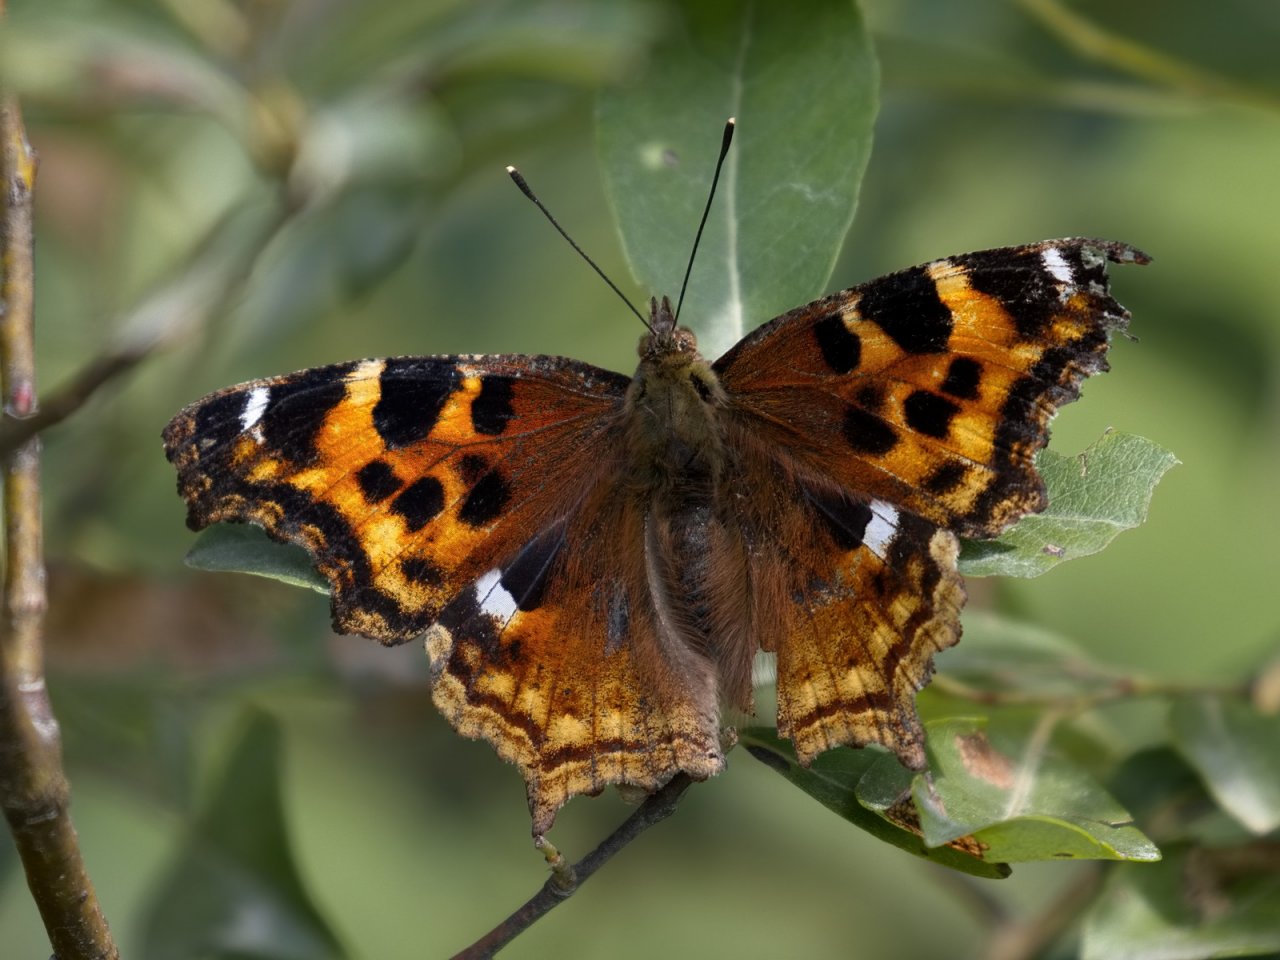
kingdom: Animalia
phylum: Arthropoda
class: Insecta
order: Lepidoptera
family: Nymphalidae
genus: Polygonia
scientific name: Polygonia vaualbum
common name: Compton Tortoiseshell
